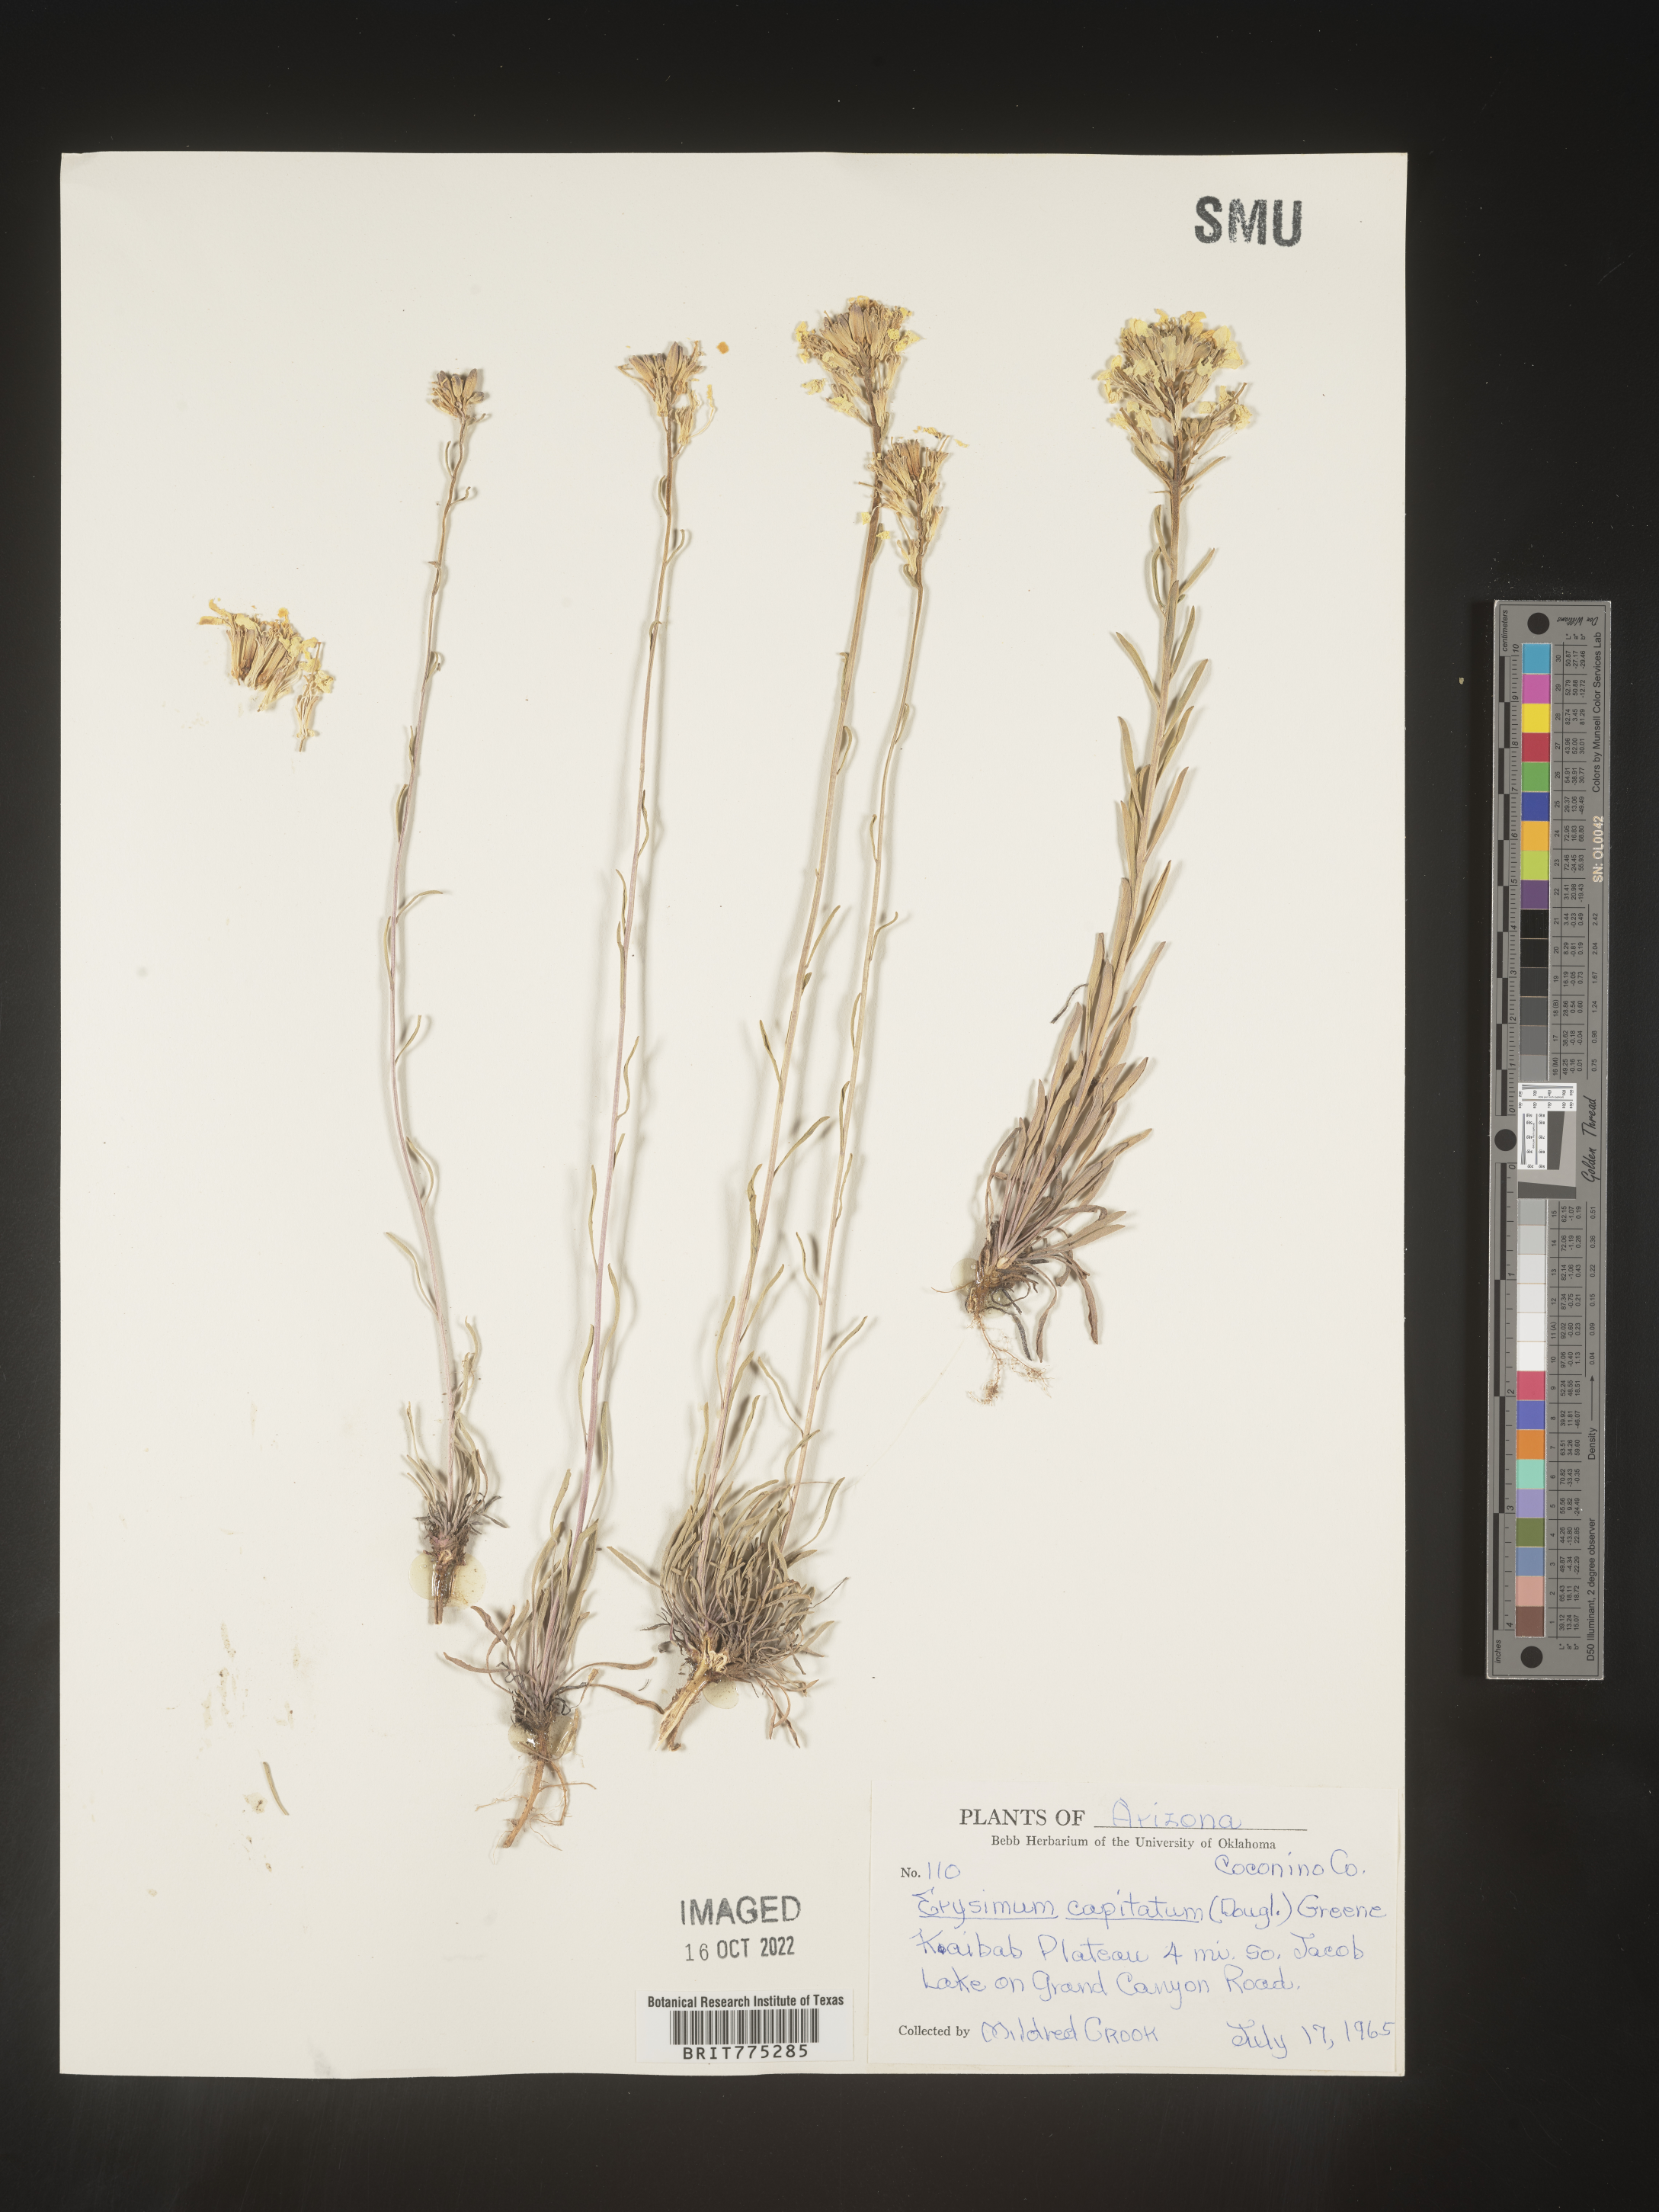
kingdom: Plantae
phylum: Tracheophyta
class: Magnoliopsida
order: Brassicales
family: Brassicaceae
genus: Erysimum
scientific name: Erysimum capitatum
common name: Western wallflower
